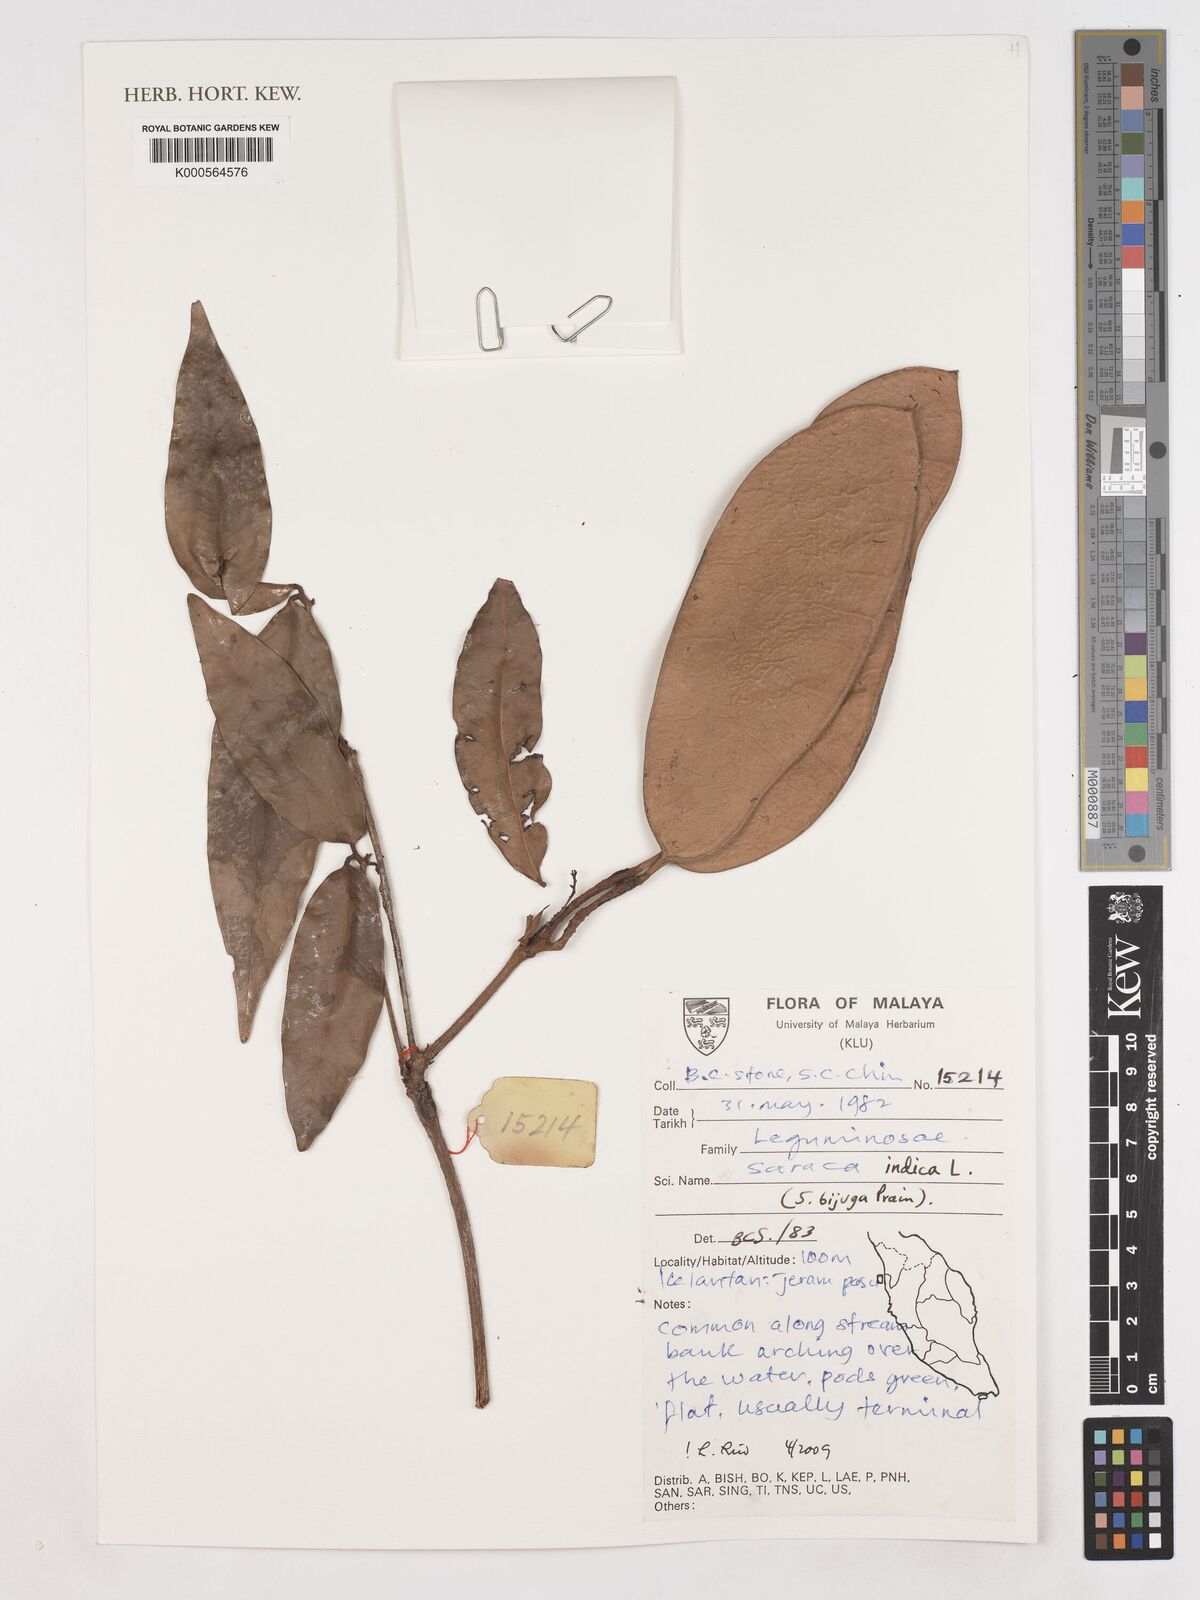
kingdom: Plantae
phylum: Tracheophyta
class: Magnoliopsida
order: Fabales
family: Fabaceae
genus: Saraca
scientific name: Saraca indica
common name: Asoka-tree
